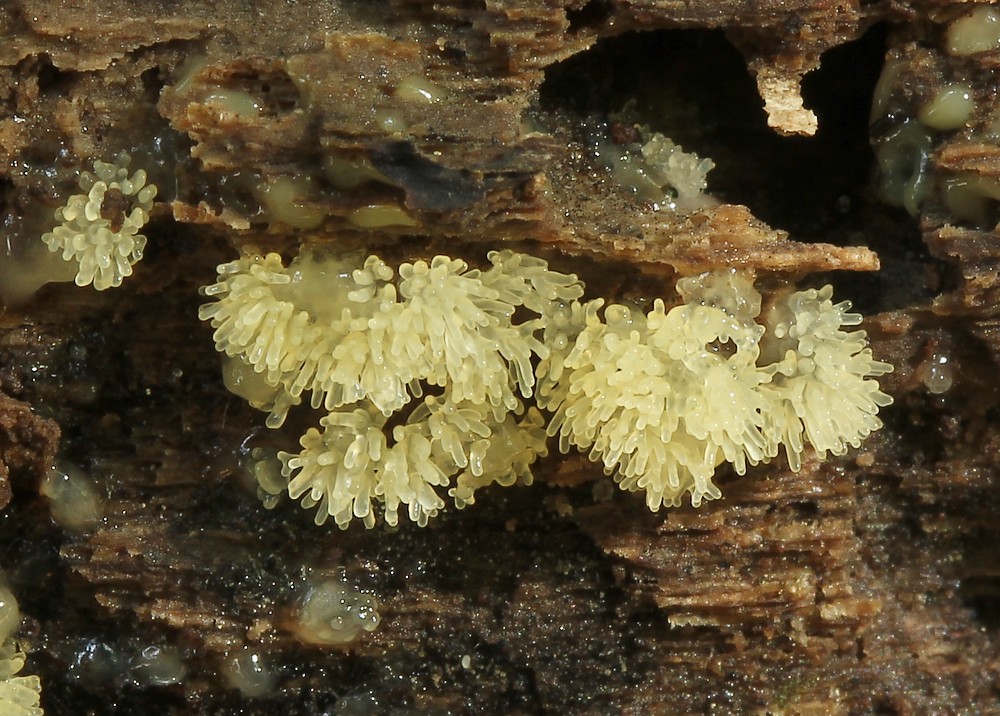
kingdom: Protozoa
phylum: Mycetozoa
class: Protosteliomycetes
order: Ceratiomyxales
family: Ceratiomyxaceae
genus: Ceratiomyxa
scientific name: Ceratiomyxa fruticulosa
